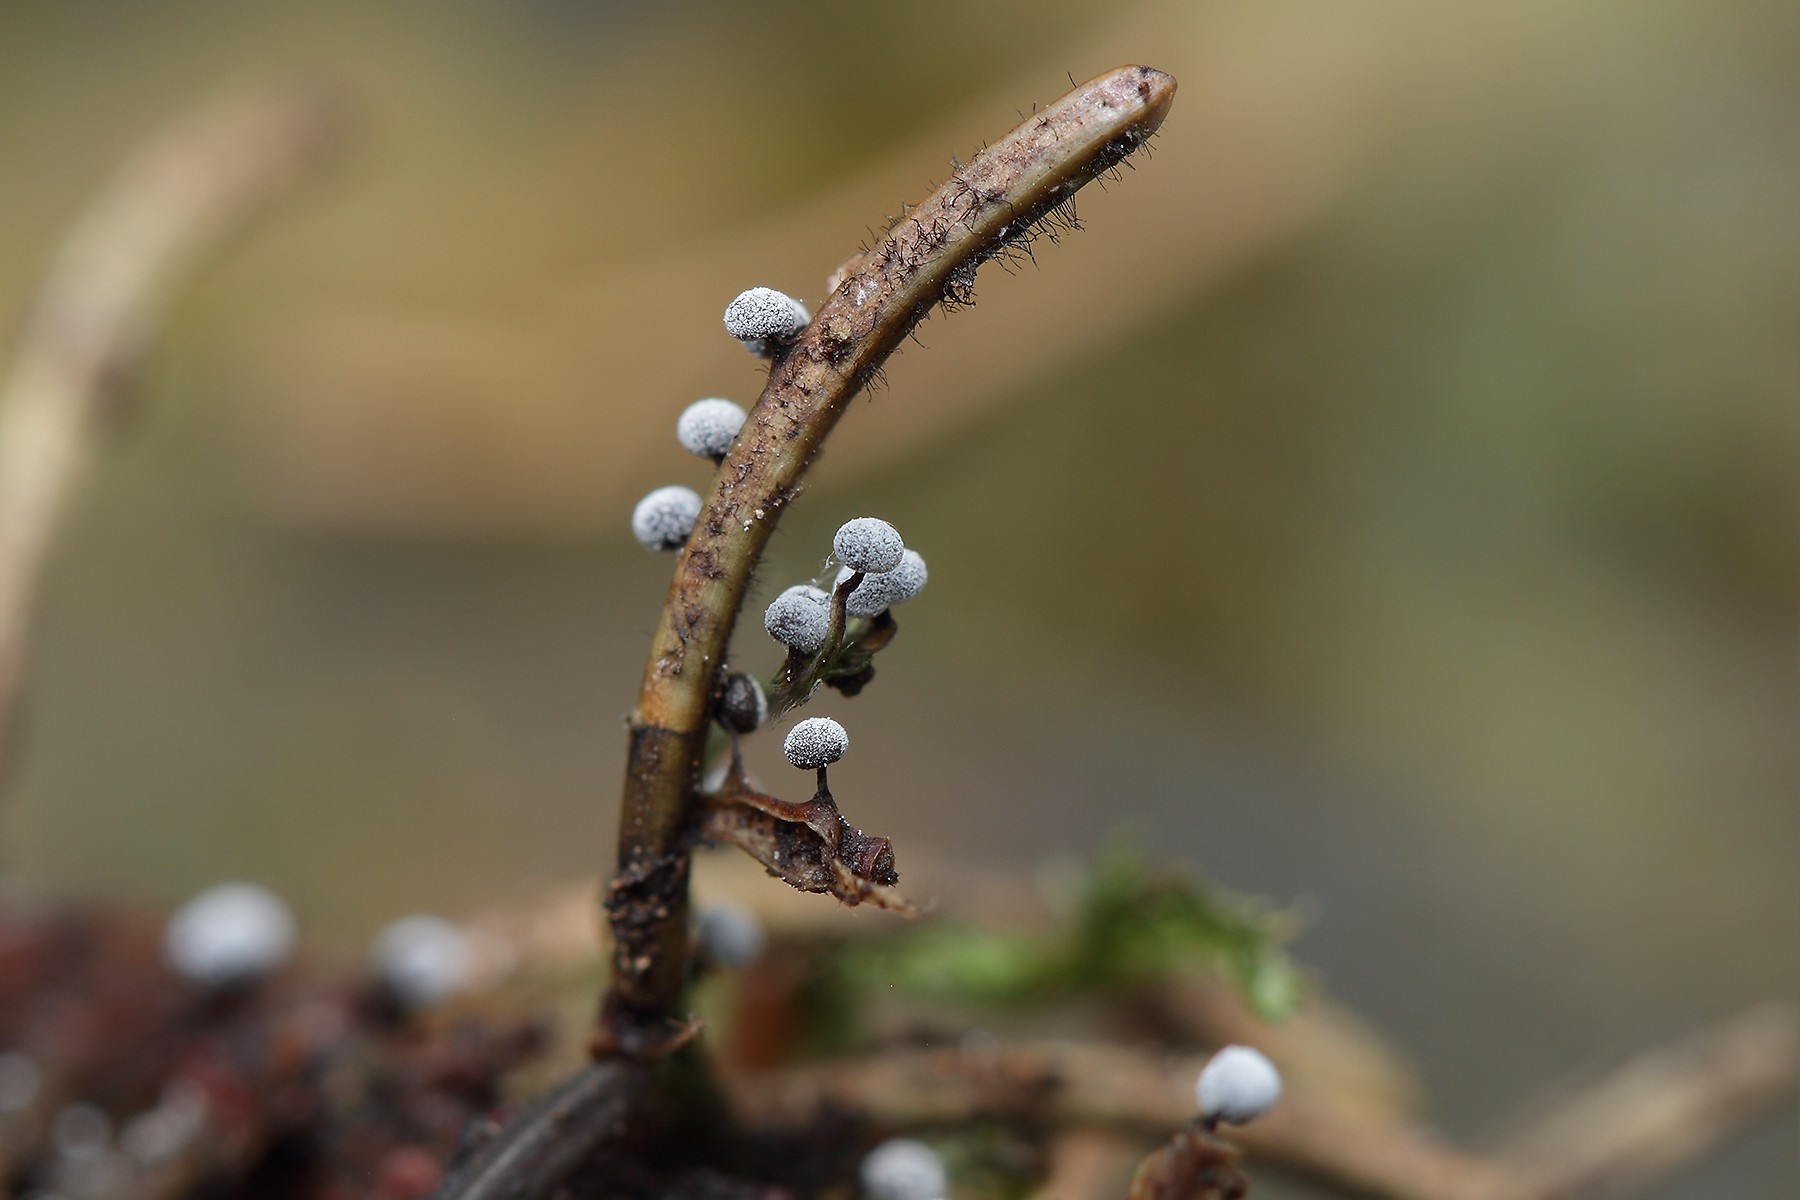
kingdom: Protozoa
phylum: Mycetozoa
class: Myxomycetes
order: Physarales
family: Didymiaceae
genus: Didymium
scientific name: Didymium melanospermum
